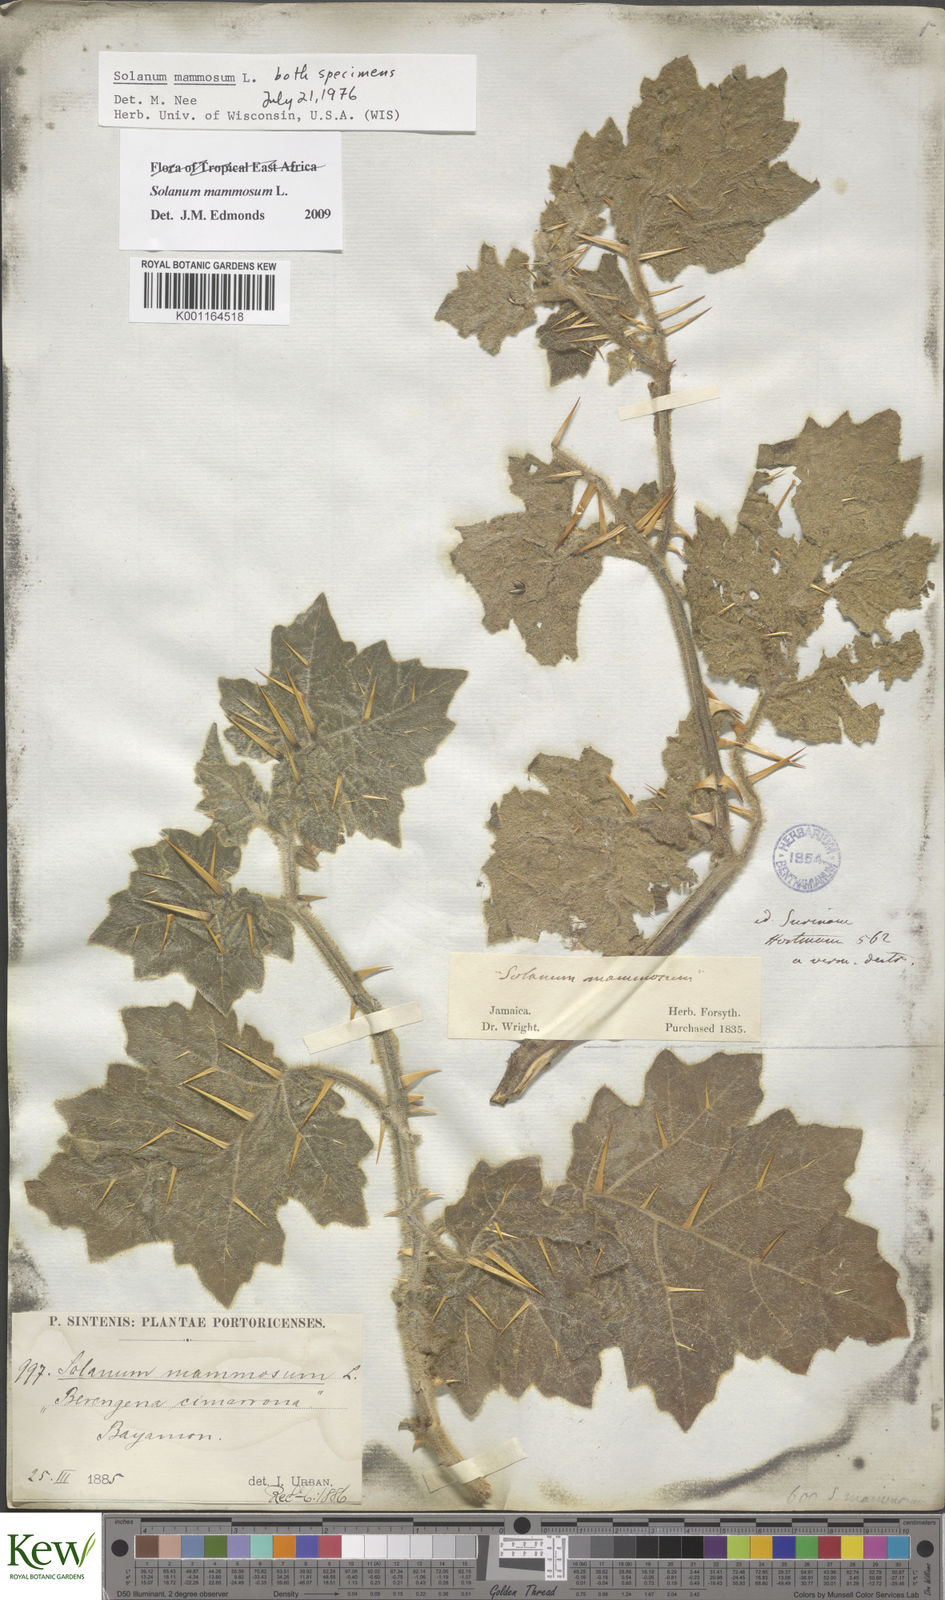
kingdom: Plantae
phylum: Tracheophyta
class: Magnoliopsida
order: Solanales
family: Solanaceae
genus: Solanum
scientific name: Solanum mammosum
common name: Nipple fruit
